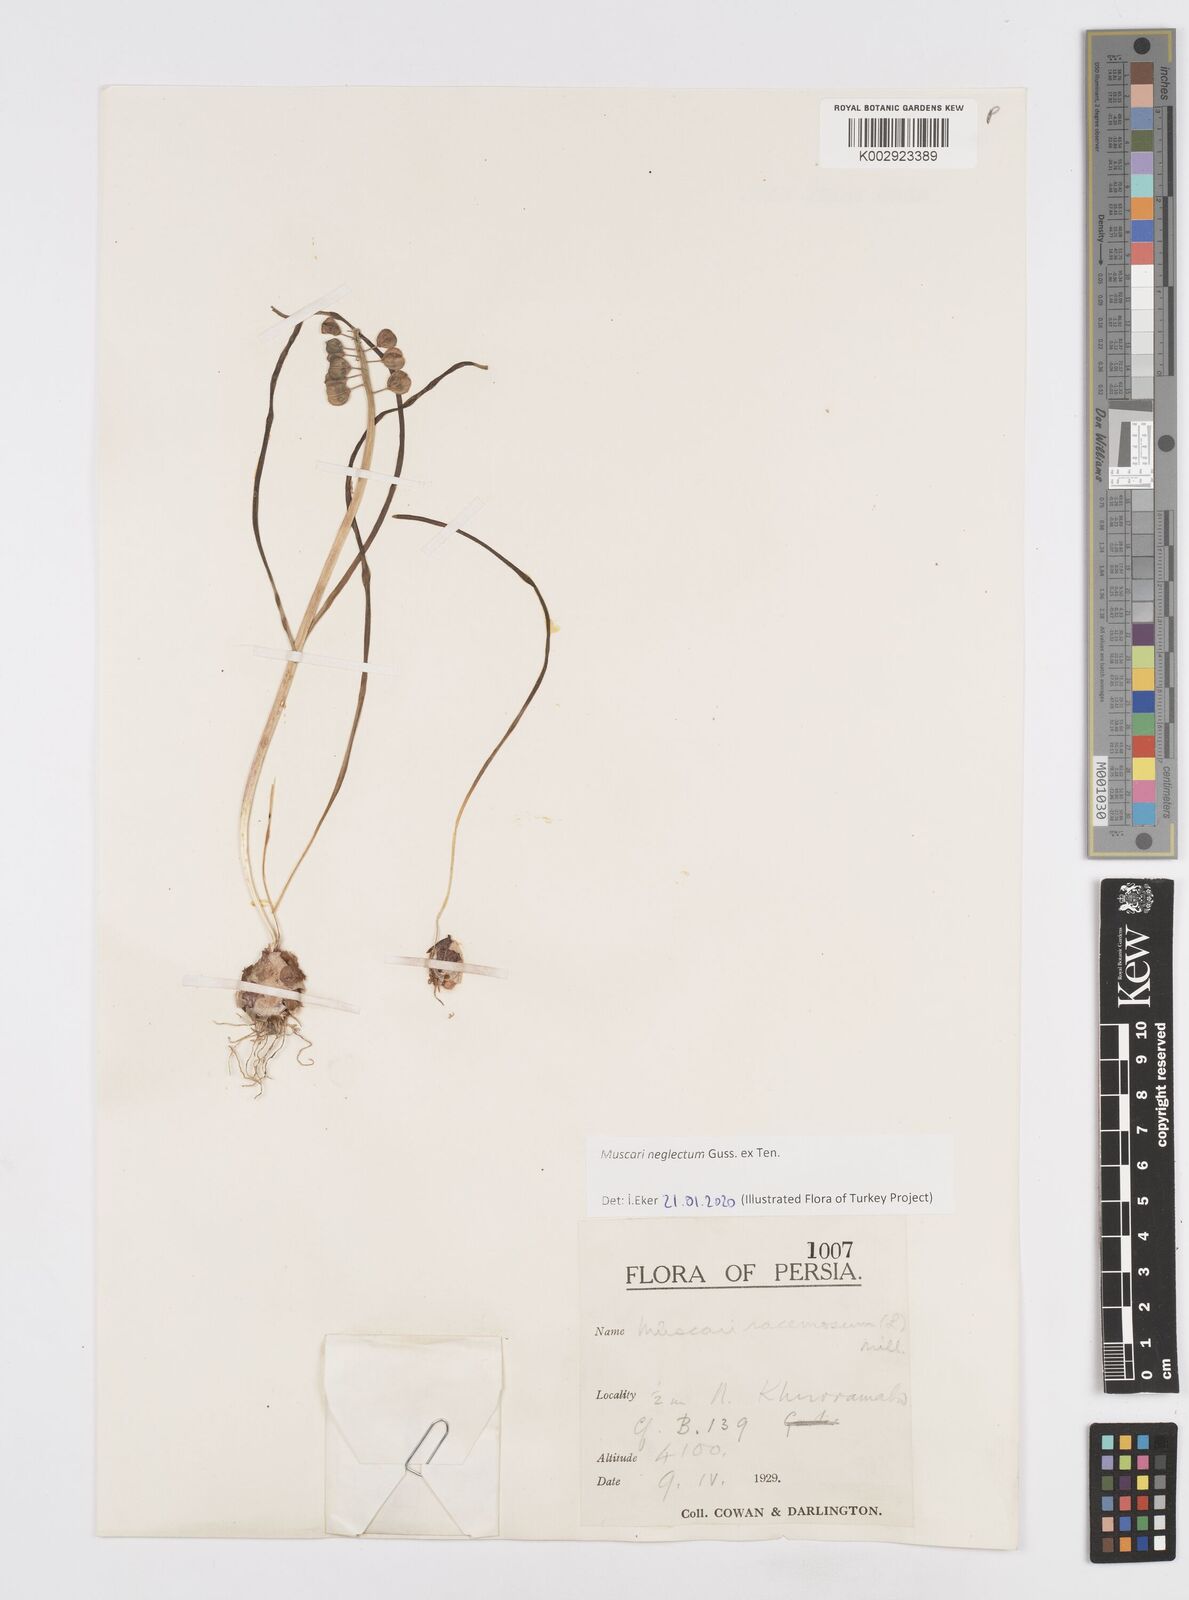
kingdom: Plantae
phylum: Tracheophyta
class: Liliopsida
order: Asparagales
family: Asparagaceae
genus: Muscari
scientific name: Muscari neglectum
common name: Grape-hyacinth
